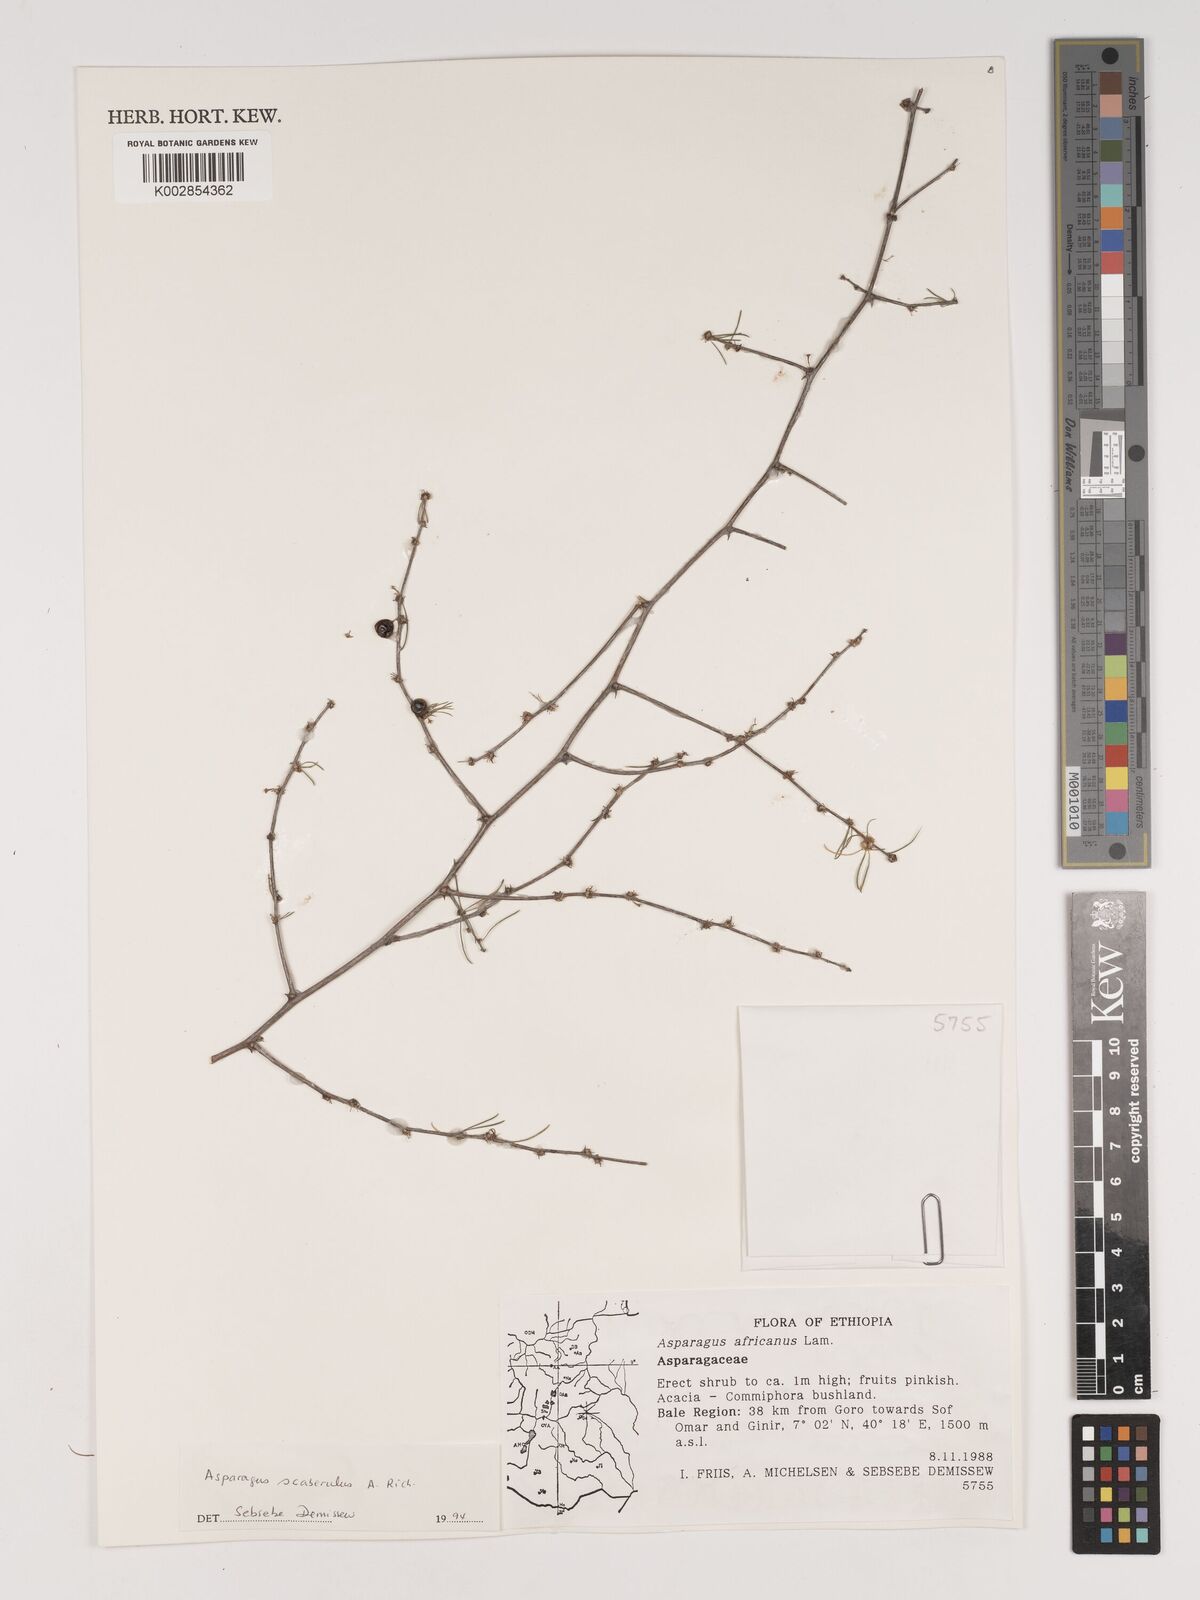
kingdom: Plantae
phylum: Tracheophyta
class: Liliopsida
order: Asparagales
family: Asparagaceae
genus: Asparagus
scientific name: Asparagus africanus
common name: Asparagus-fern
